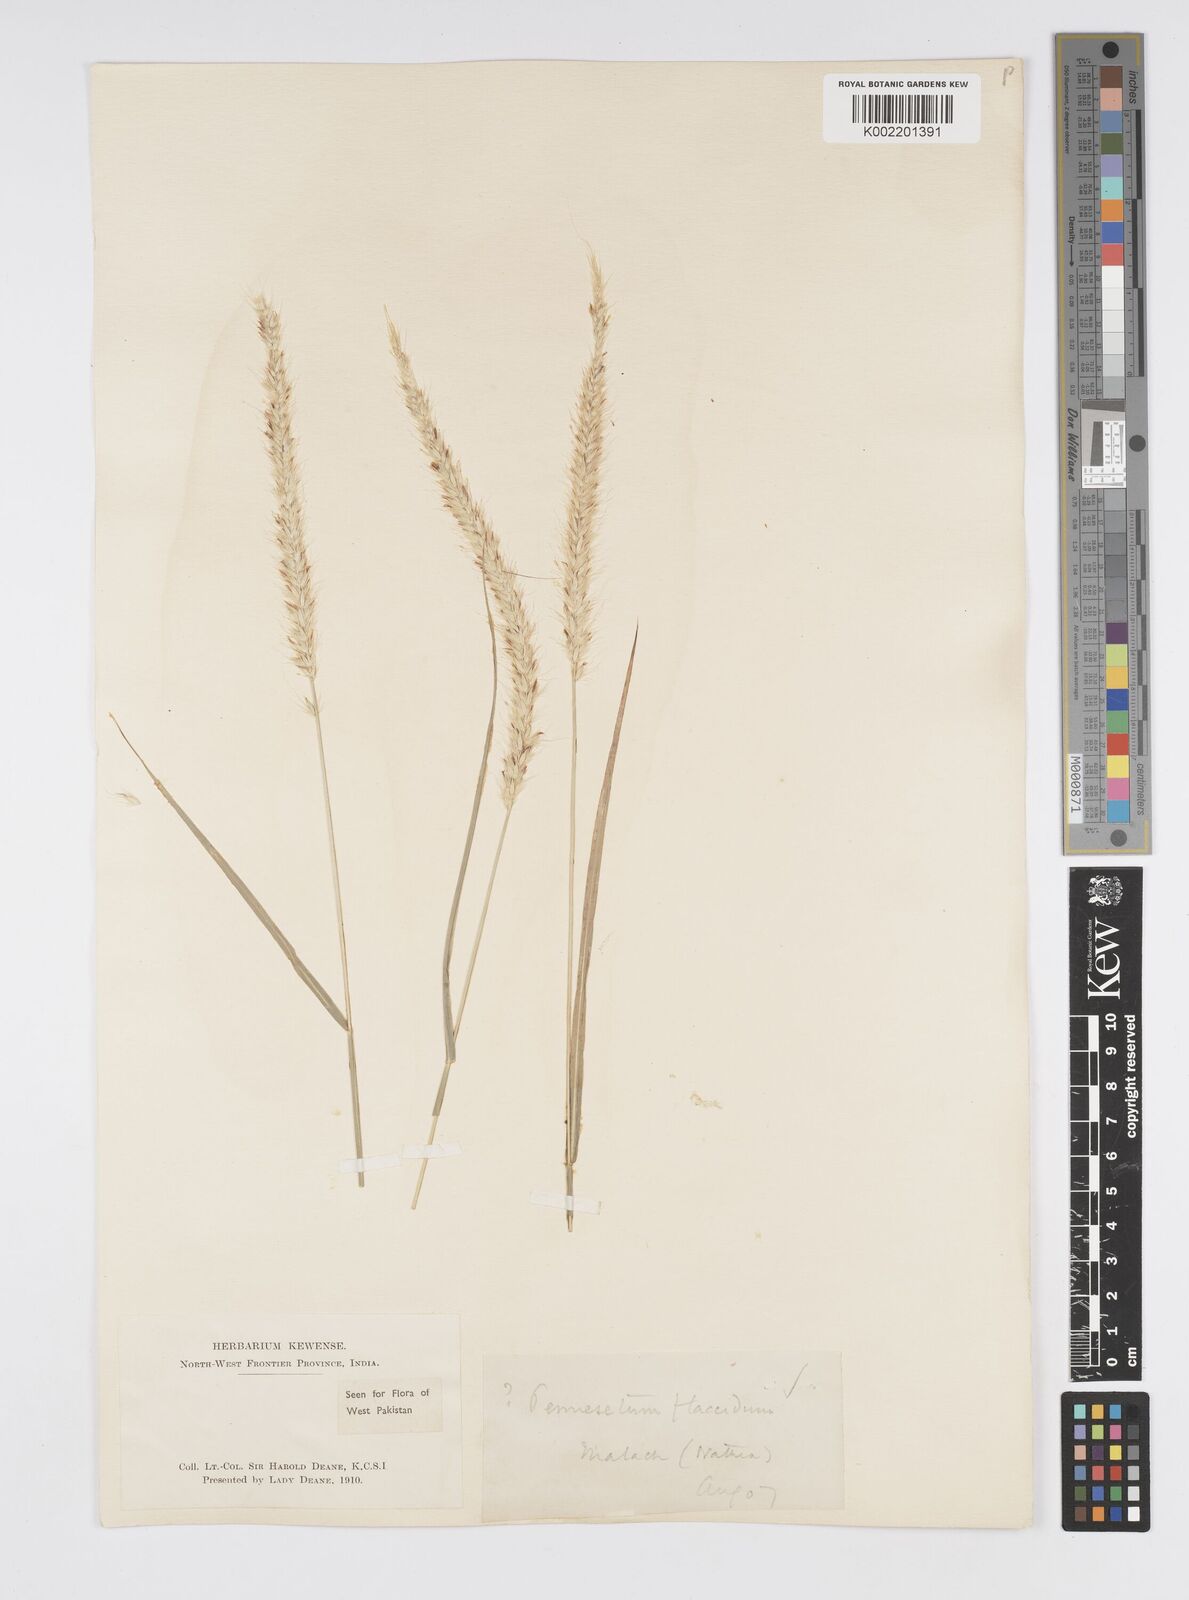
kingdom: Plantae
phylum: Tracheophyta
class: Liliopsida
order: Poales
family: Poaceae
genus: Cenchrus
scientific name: Cenchrus flaccidus
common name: Flaccid grass
